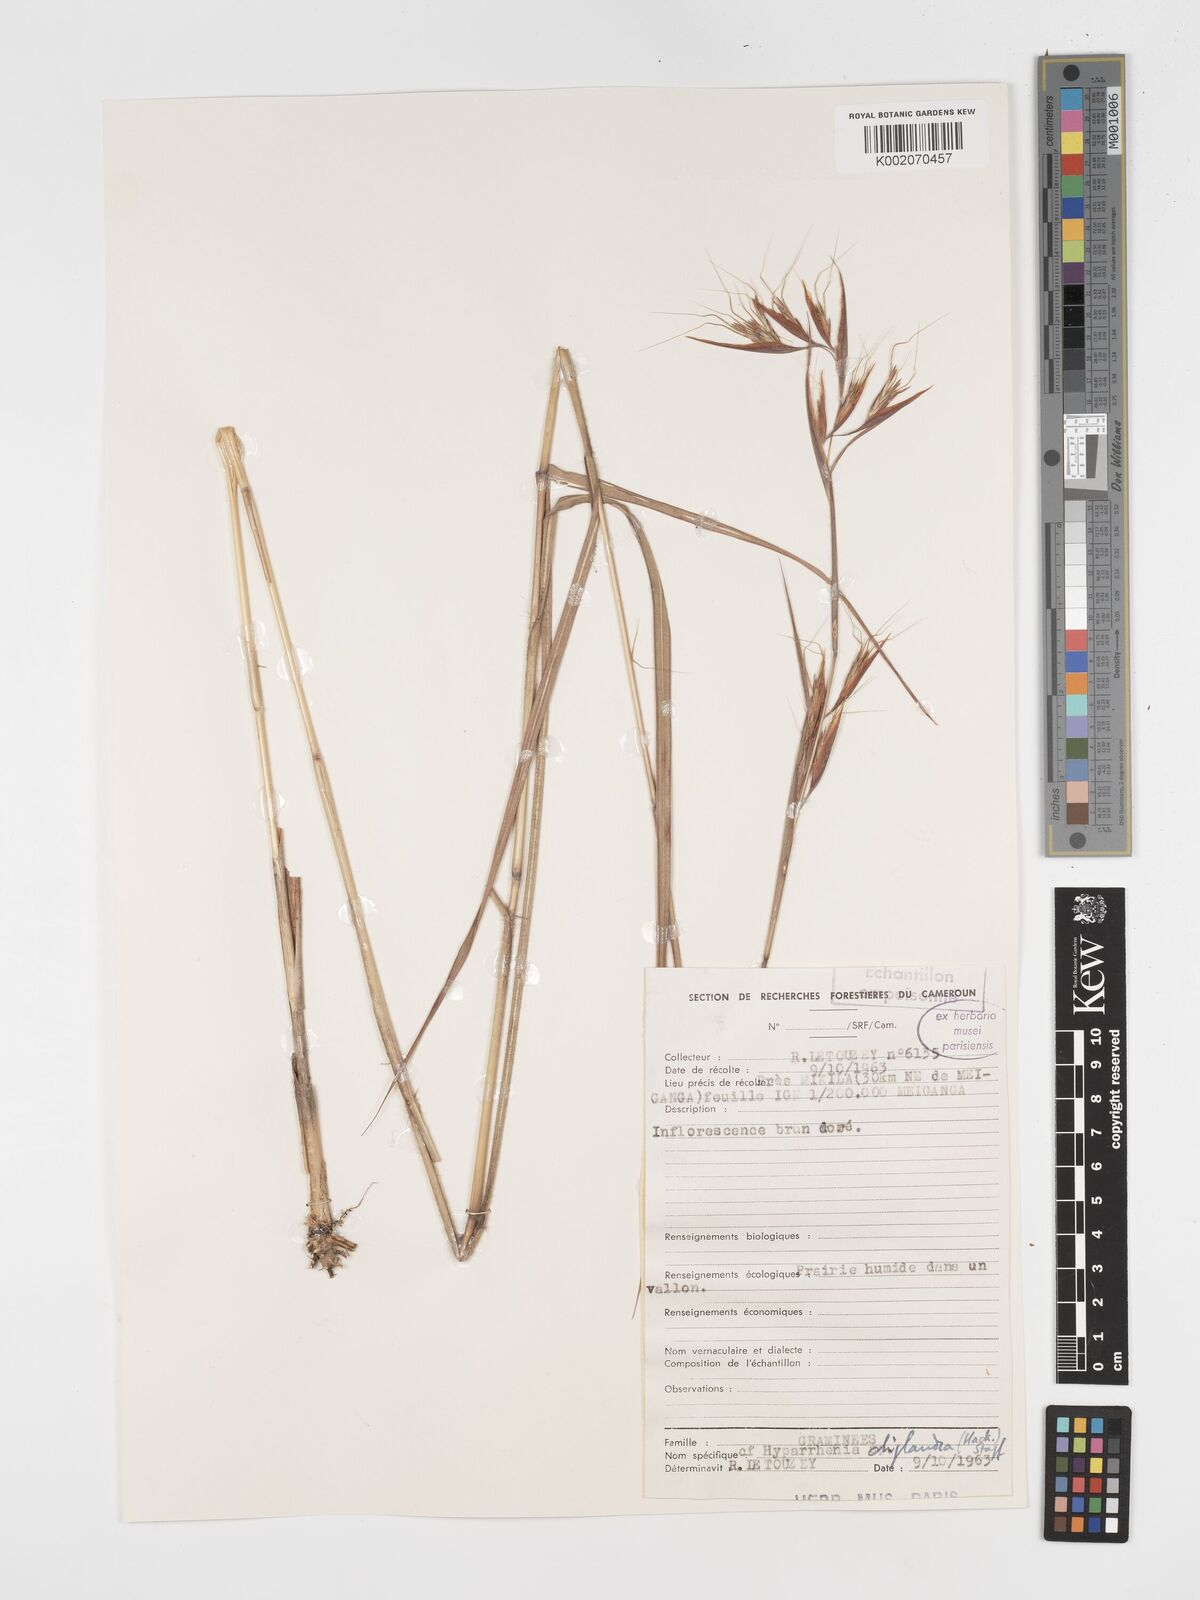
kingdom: Plantae
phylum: Tracheophyta
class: Liliopsida
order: Poales
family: Poaceae
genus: Hyparrhenia
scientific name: Hyparrhenia diplandra
